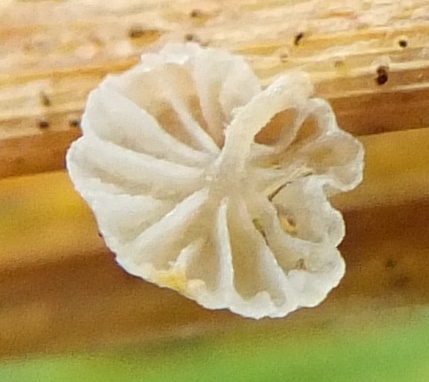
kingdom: Fungi
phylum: Basidiomycota
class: Agaricomycetes
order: Agaricales
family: Mycenaceae
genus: Resinomycena
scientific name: Resinomycena saccharifera
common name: sukkerhat
